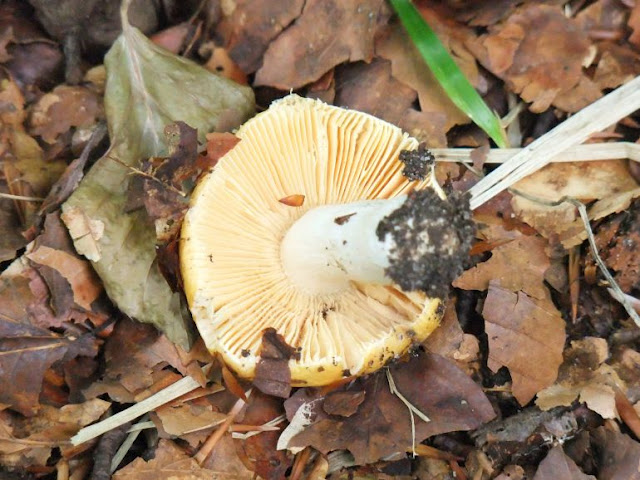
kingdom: Fungi
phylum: Basidiomycota
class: Agaricomycetes
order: Russulales
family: Russulaceae
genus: Russula
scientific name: Russula risigallina
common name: abrikos-skørhat
